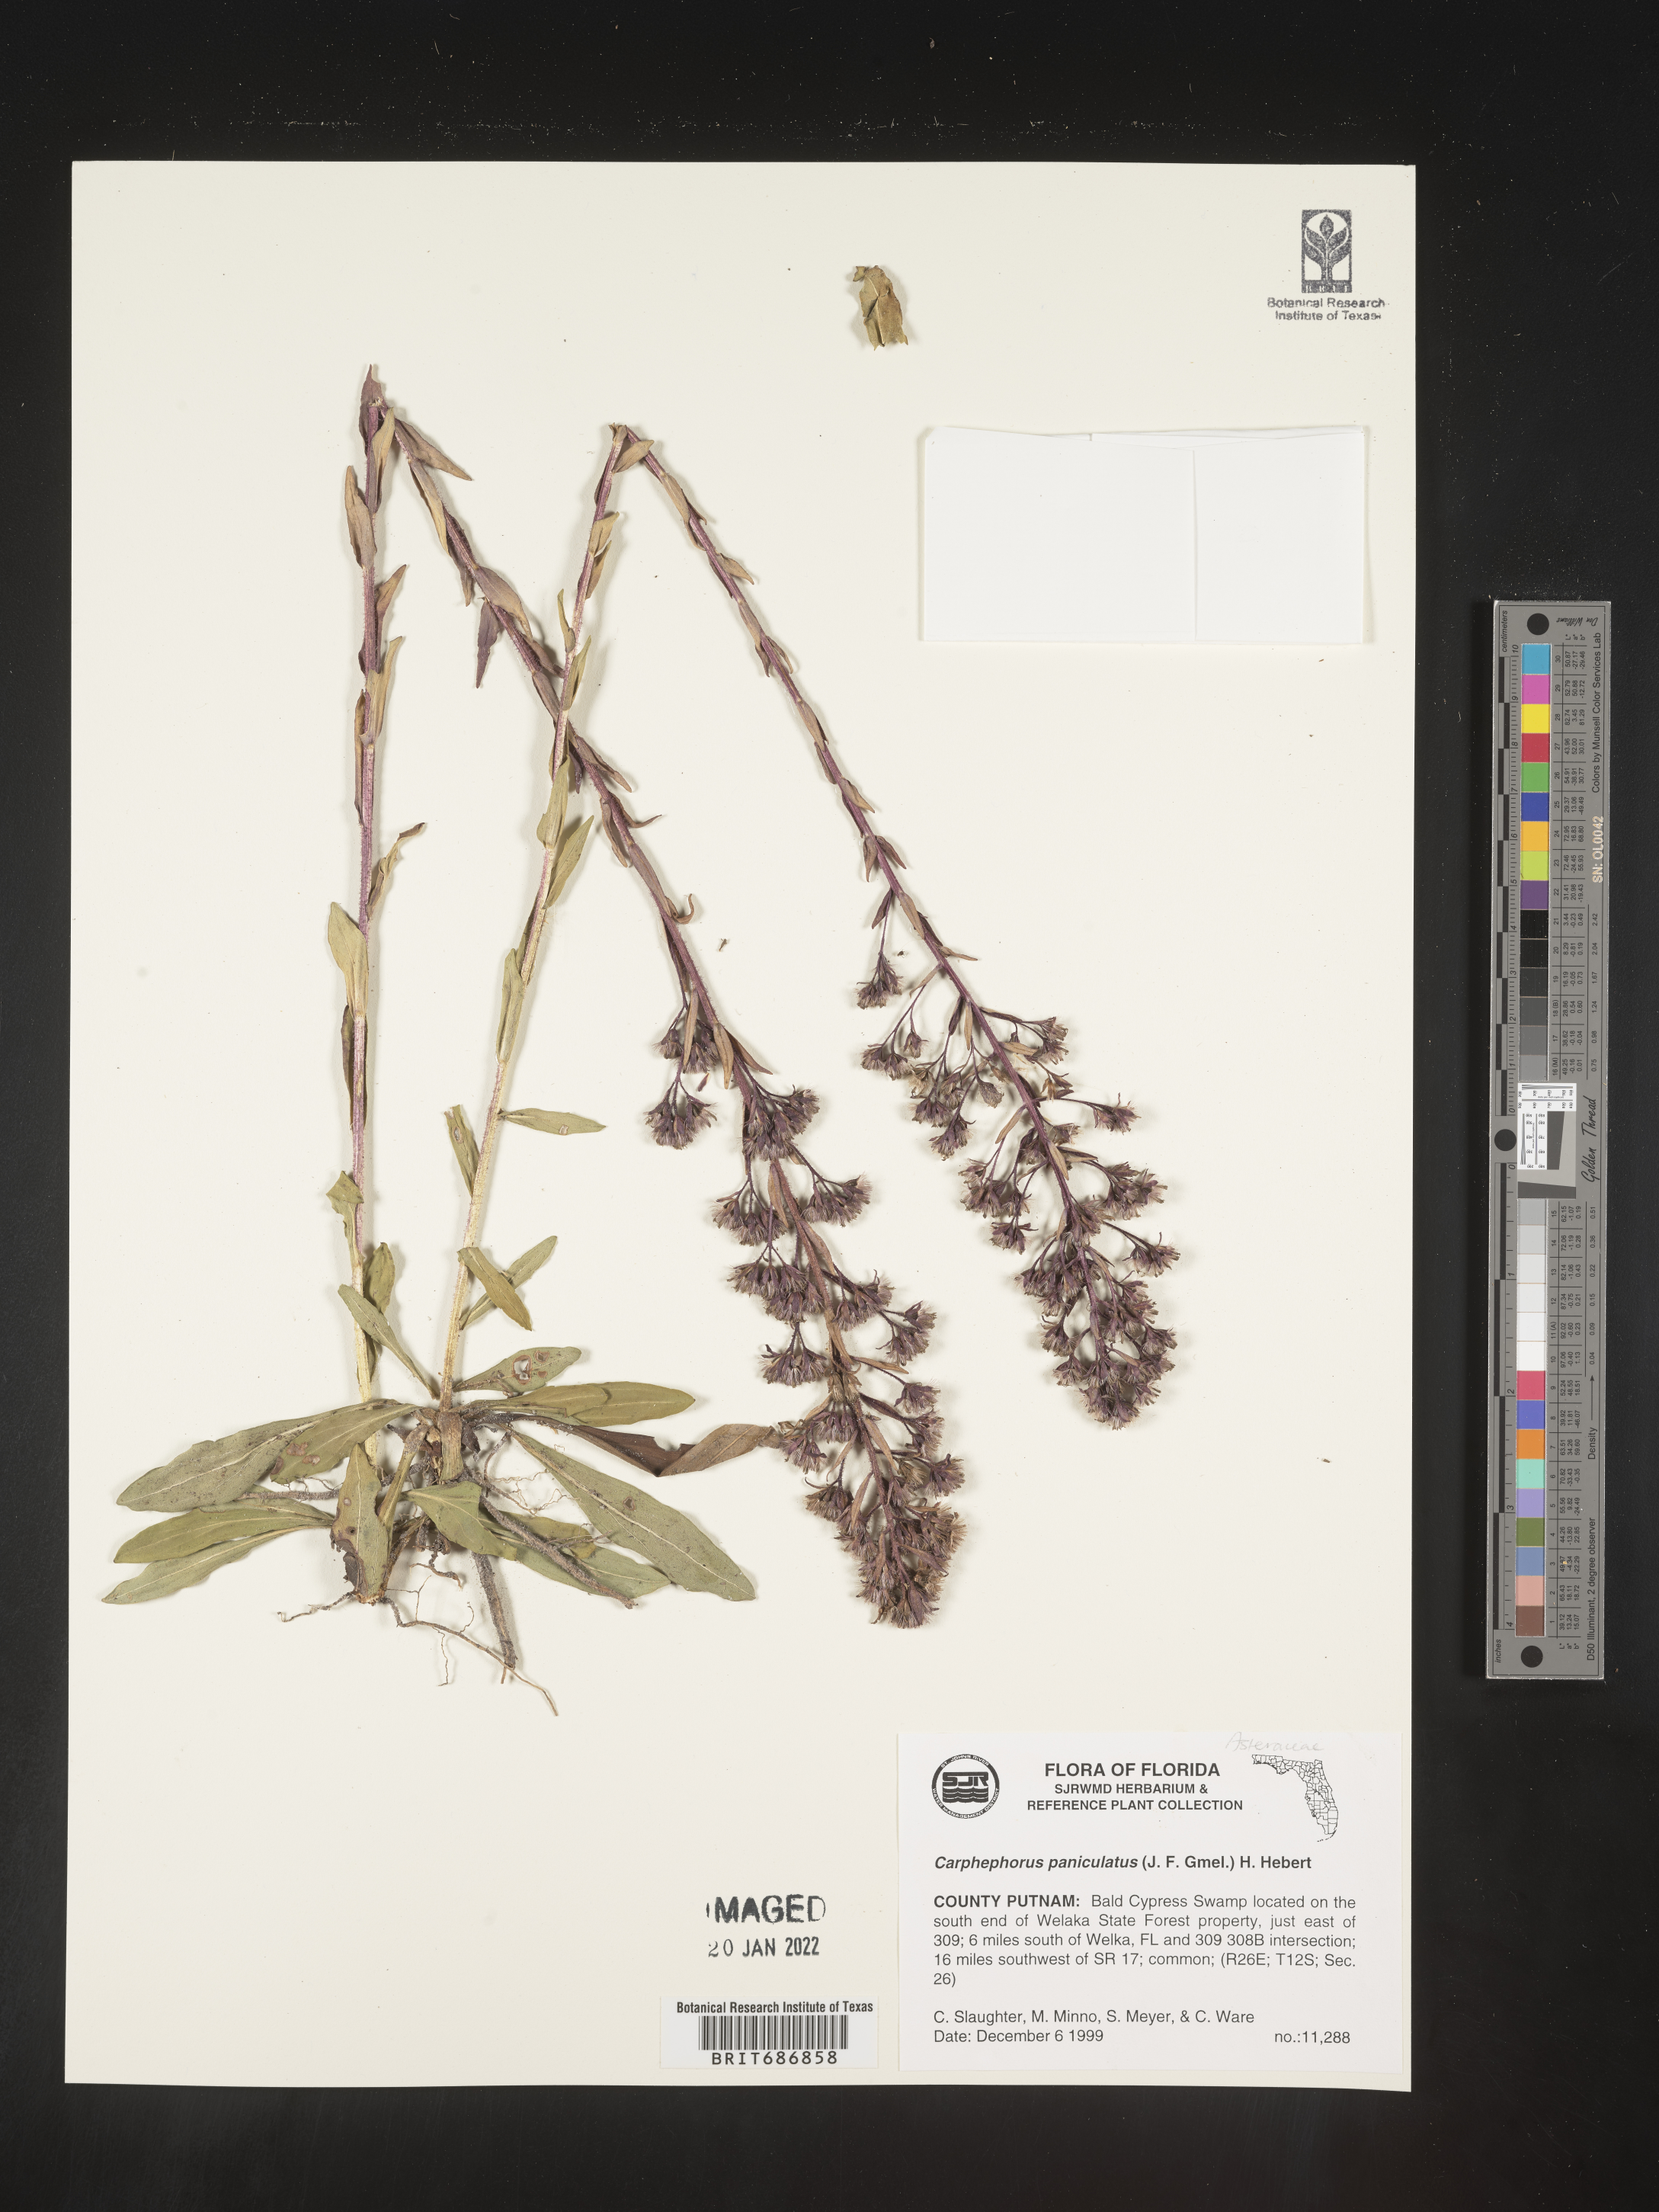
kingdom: Plantae
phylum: Tracheophyta
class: Magnoliopsida
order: Asterales
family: Asteraceae
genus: Carphephorus
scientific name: Carphephorus paniculatus
